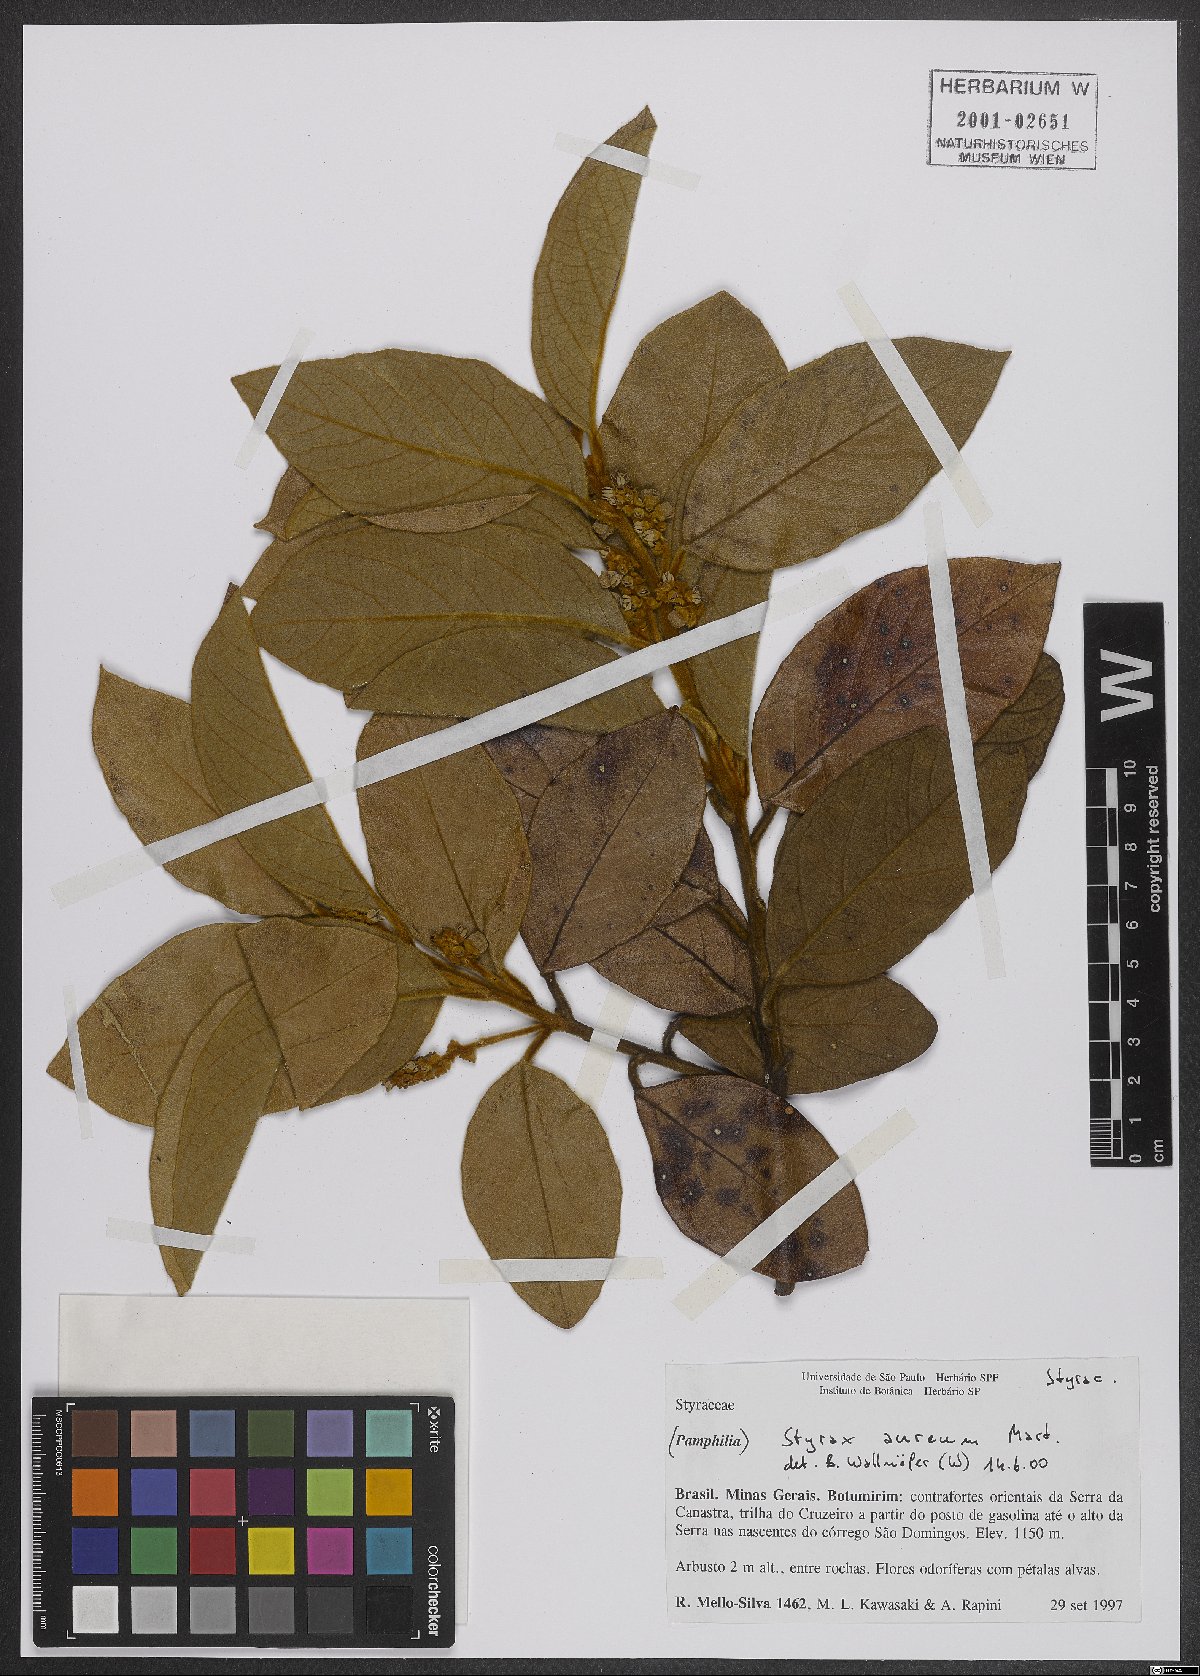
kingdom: Plantae
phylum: Tracheophyta
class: Magnoliopsida
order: Ericales
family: Styracaceae
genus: Styrax
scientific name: Styrax aureus
